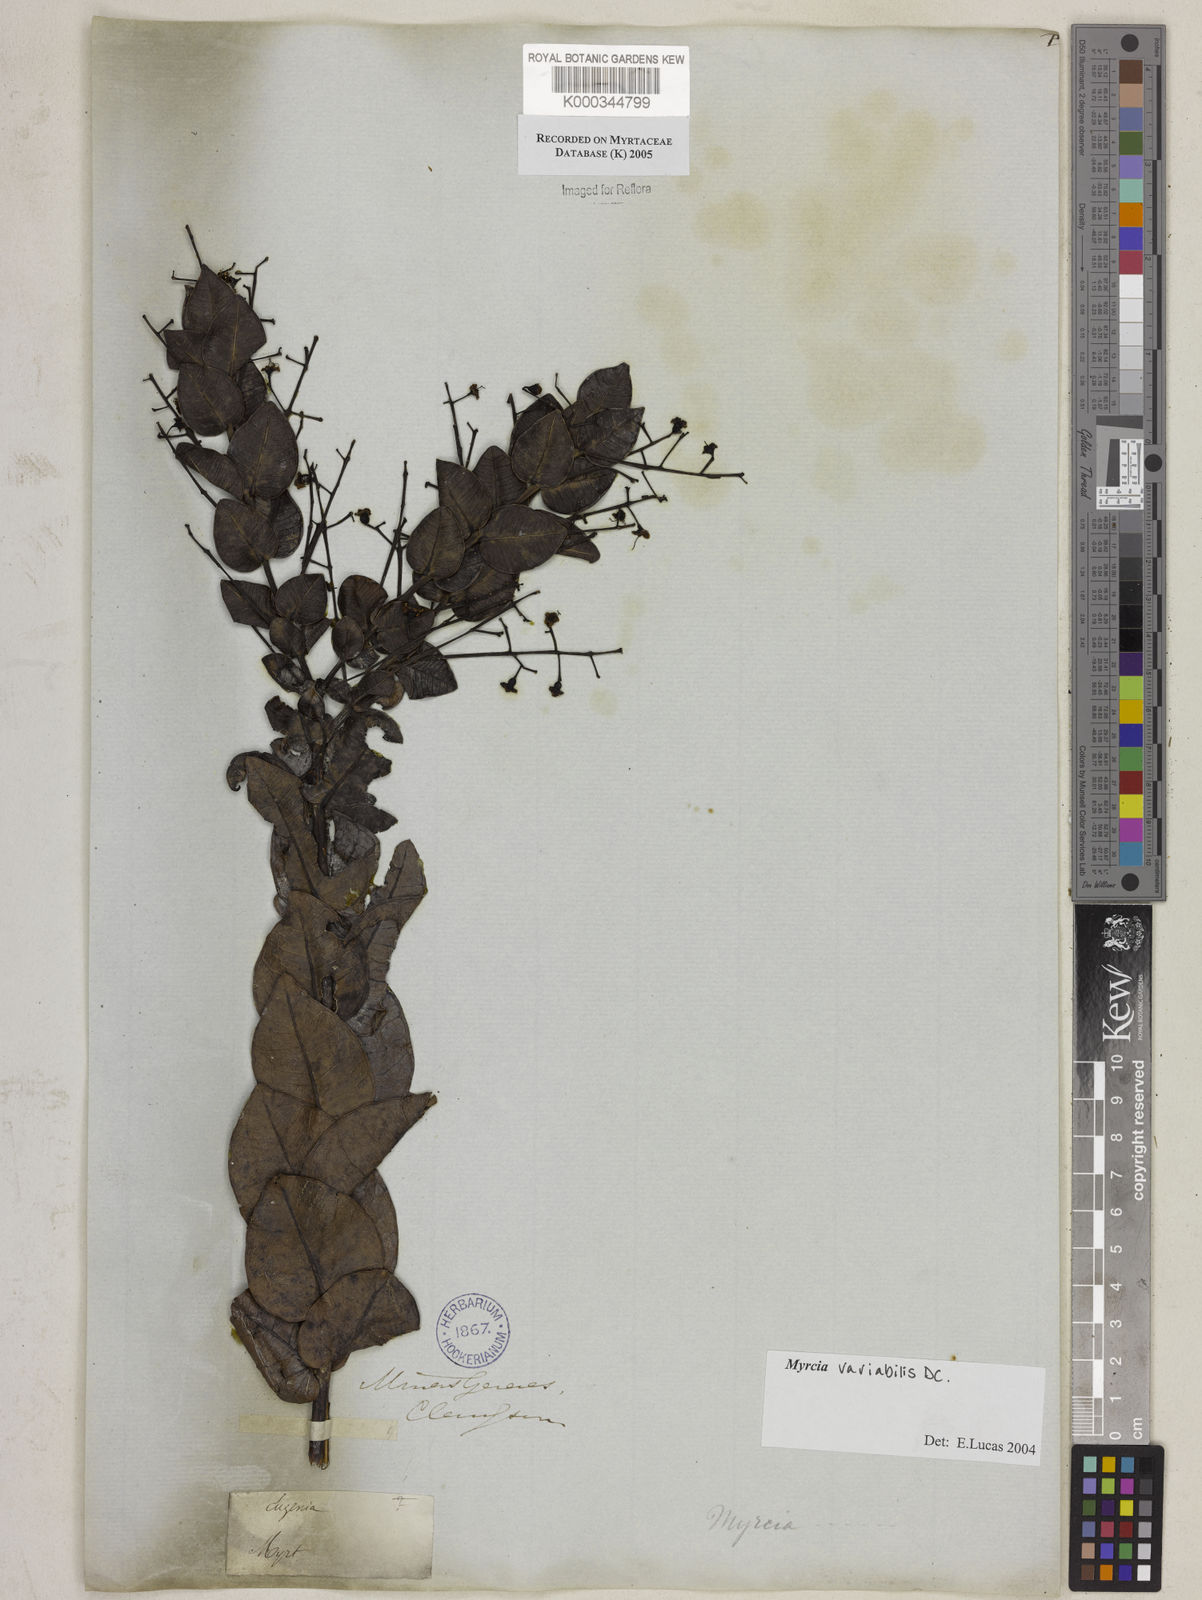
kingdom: Plantae
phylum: Tracheophyta
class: Magnoliopsida
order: Myrtales
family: Myrtaceae
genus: Myrcia
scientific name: Myrcia variabilis
